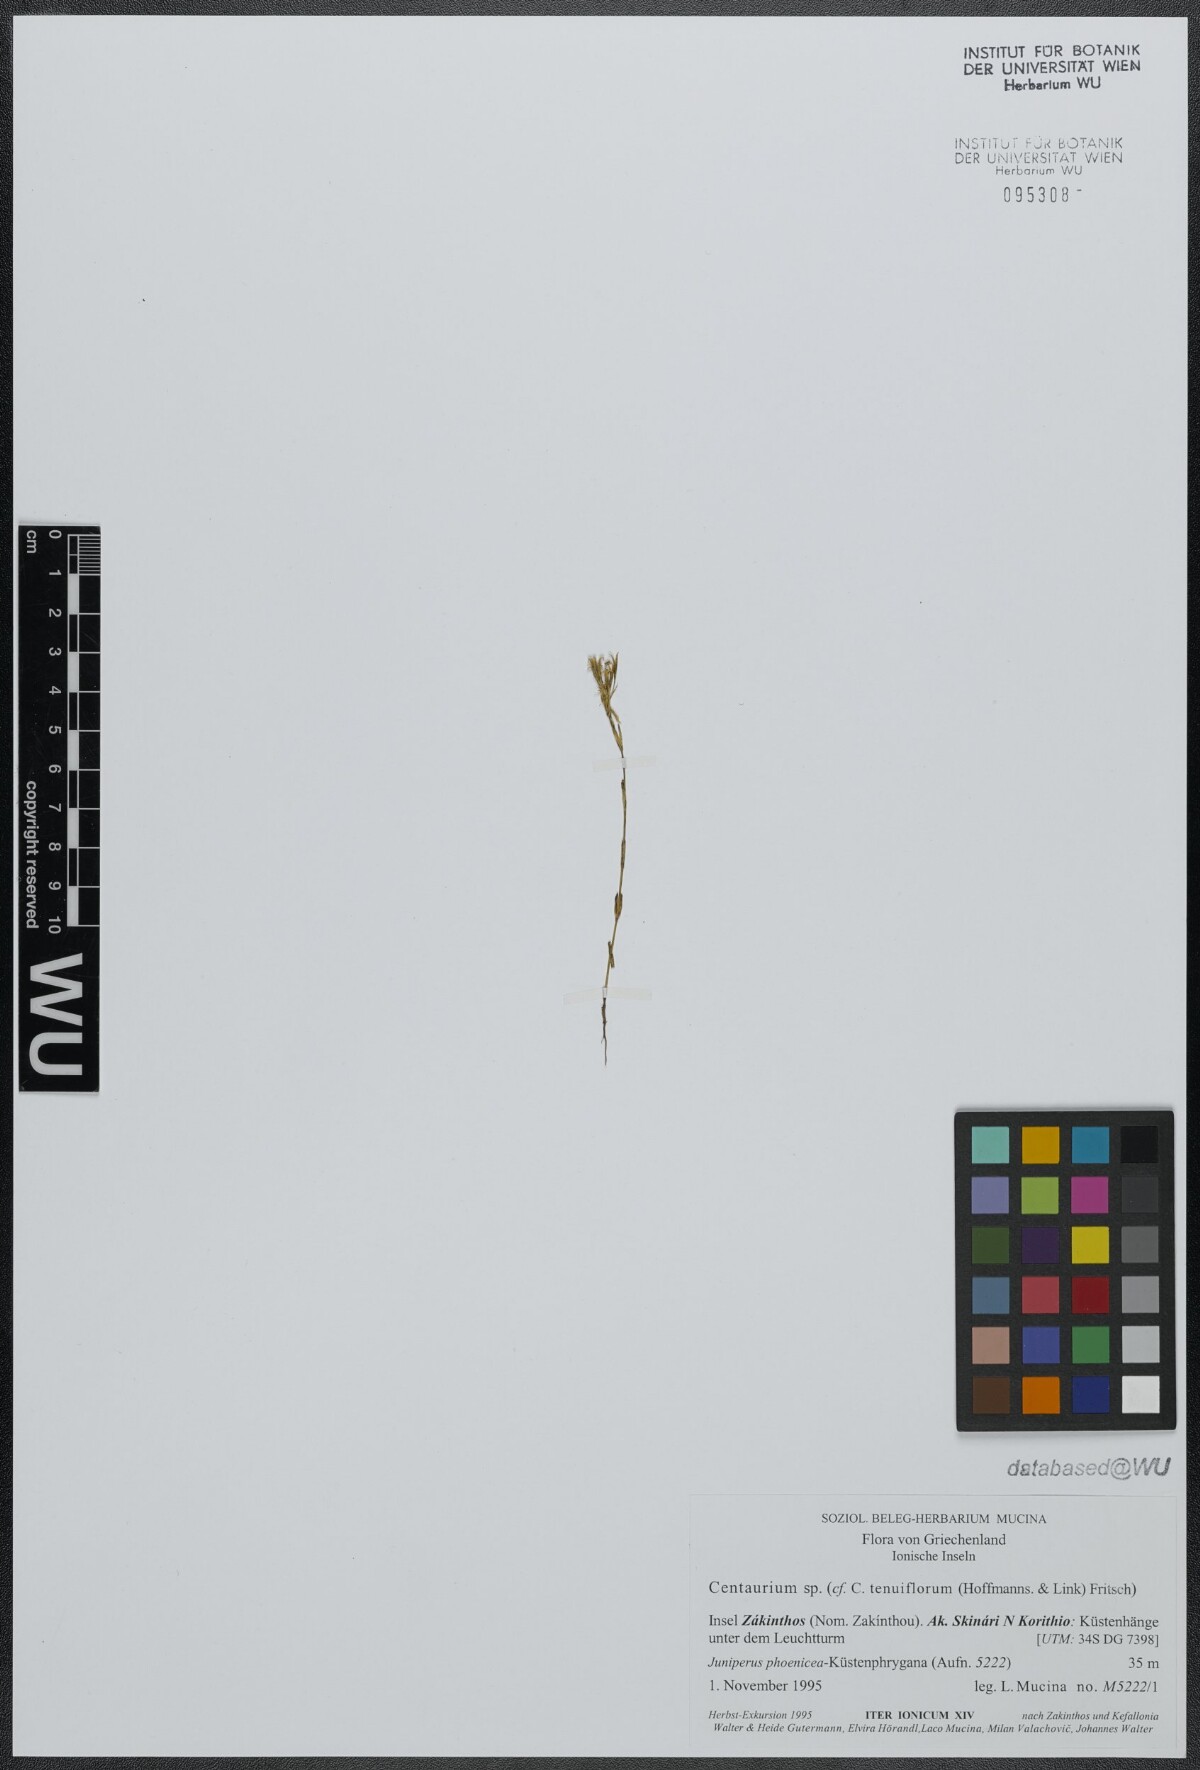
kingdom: Plantae
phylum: Tracheophyta
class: Magnoliopsida
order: Gentianales
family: Gentianaceae
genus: Centaurium
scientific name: Centaurium tenuiflorum
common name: Slender centaury
